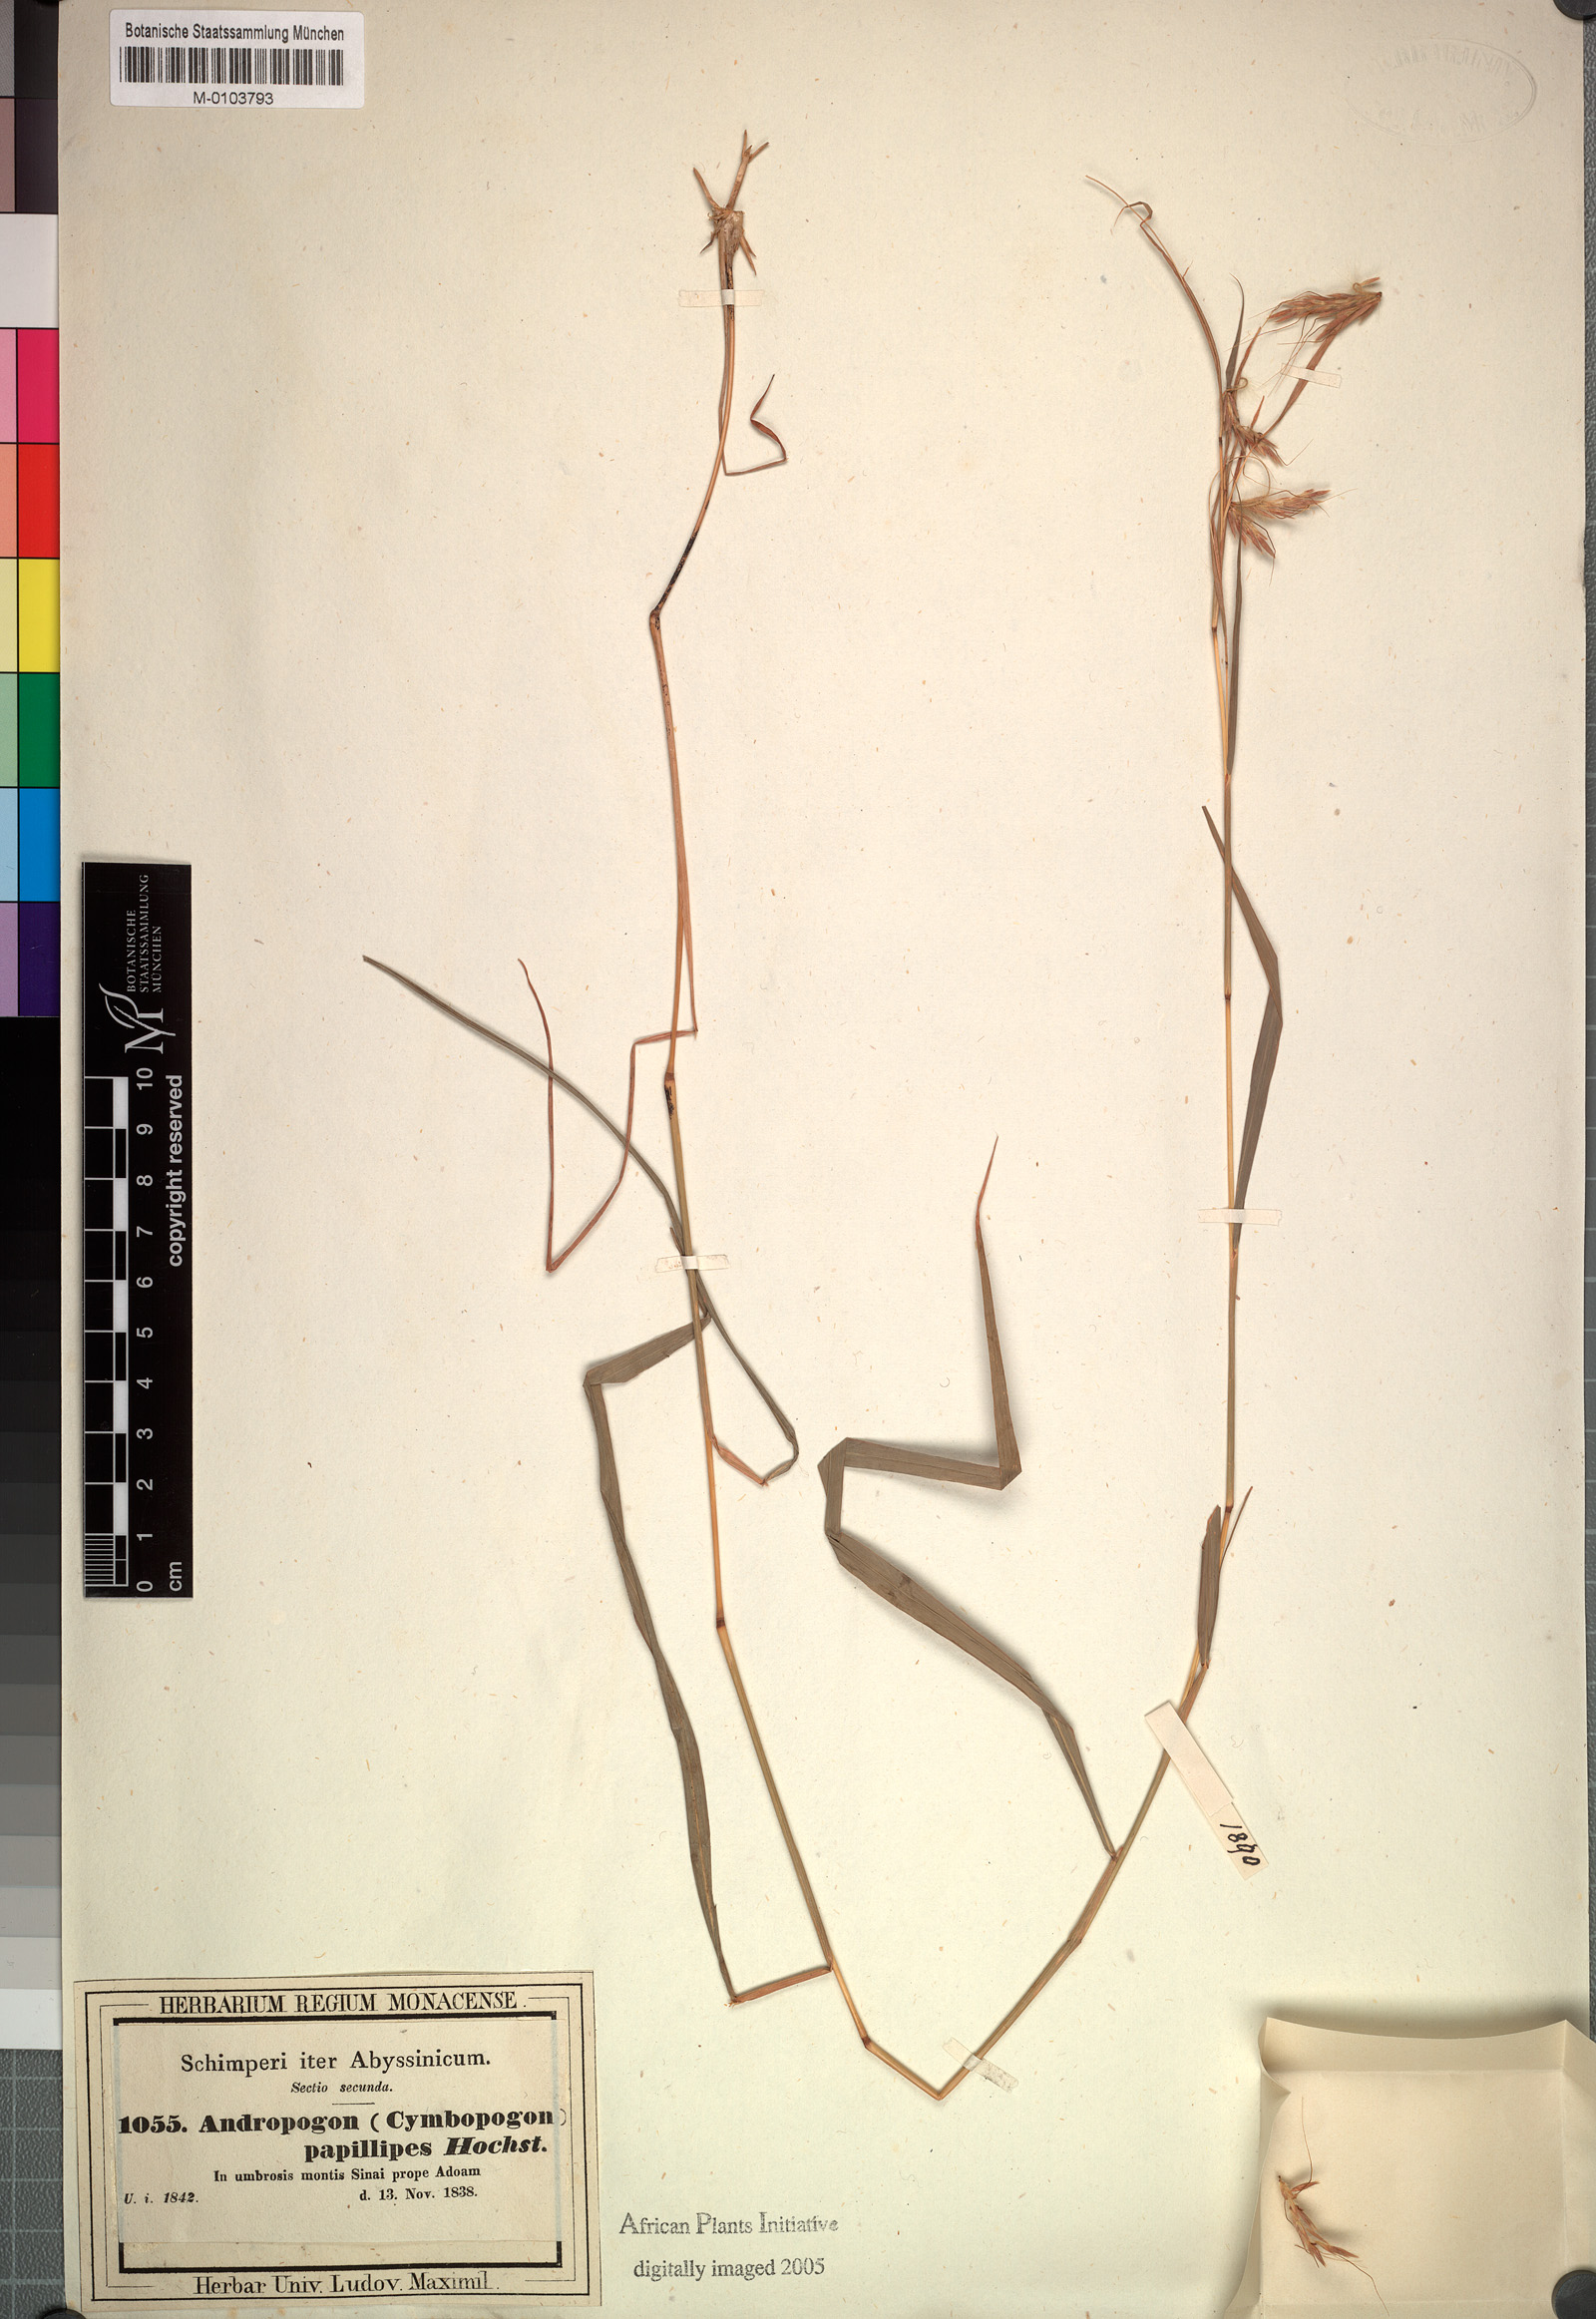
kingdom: Plantae
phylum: Tracheophyta
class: Liliopsida
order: Poales
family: Poaceae
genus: Hyparrhenia
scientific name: Hyparrhenia papillipes
